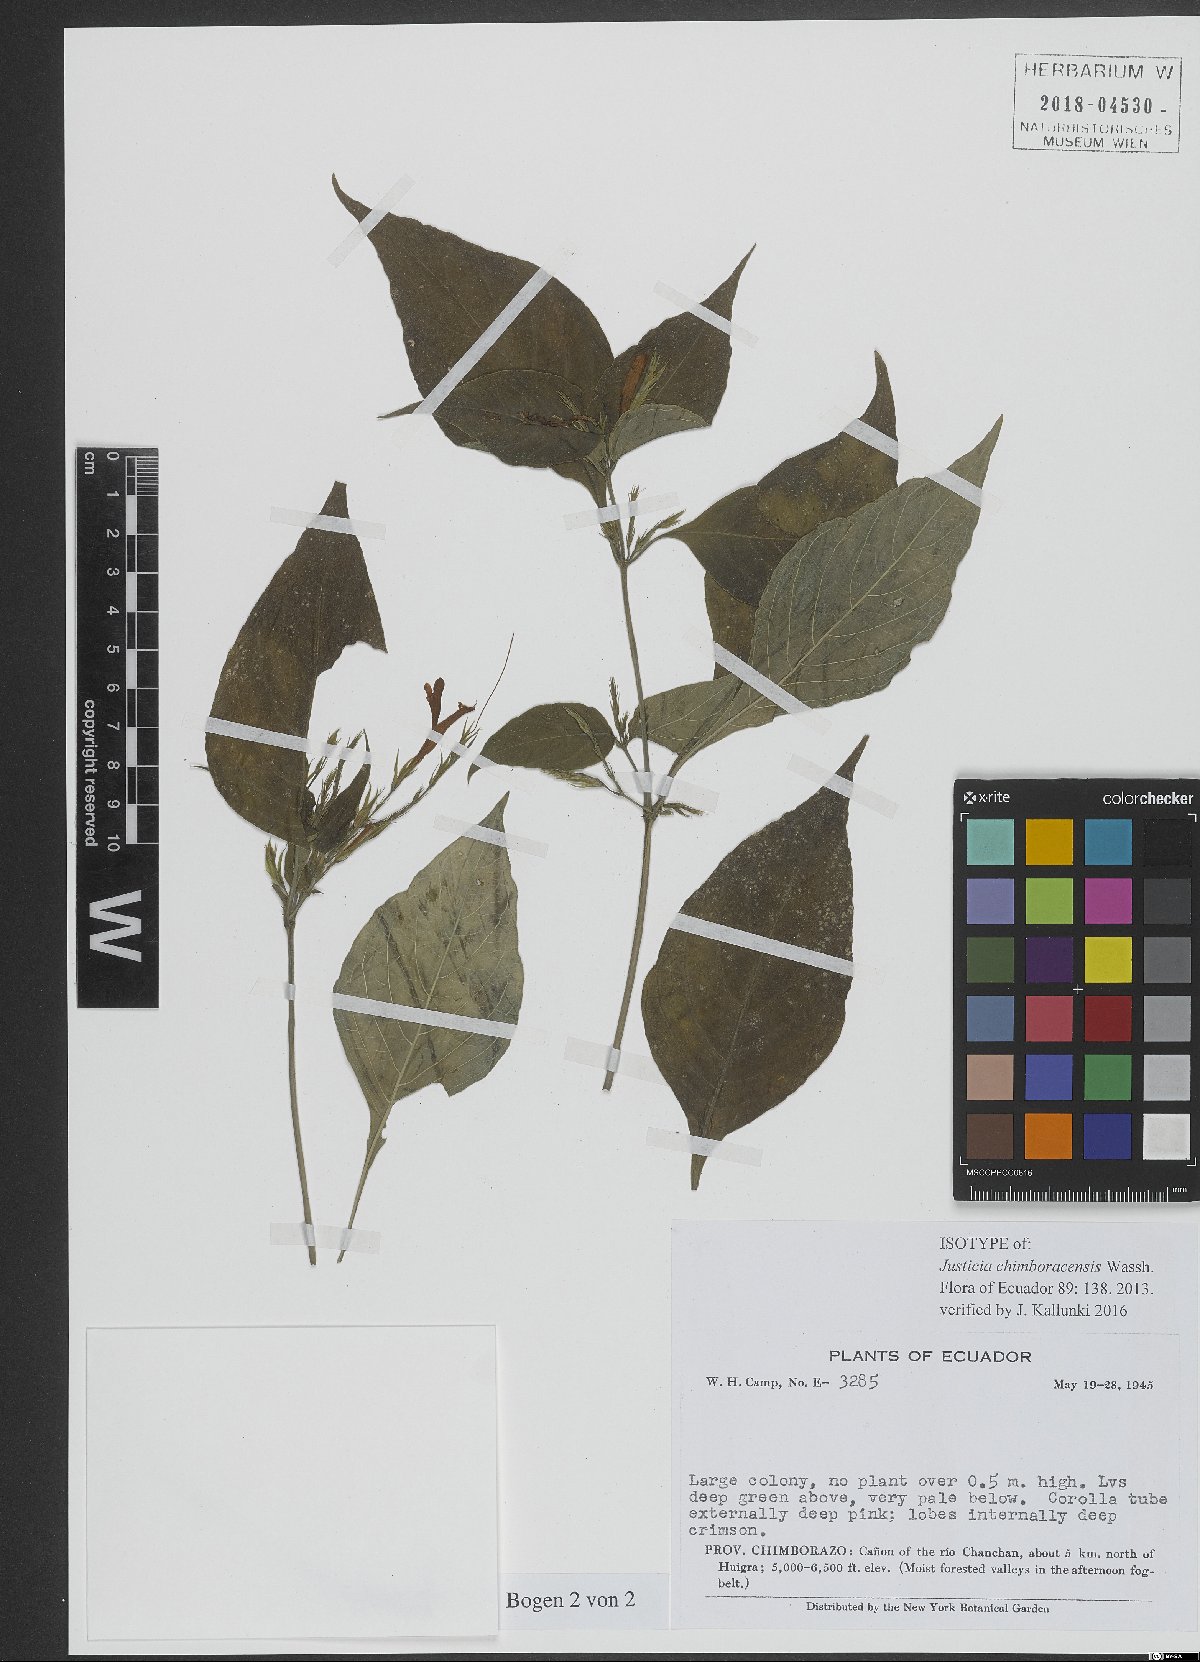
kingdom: Plantae
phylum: Tracheophyta
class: Magnoliopsida
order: Fabales
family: Fabaceae
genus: Tachigali
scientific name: Tachigali candelabrum
